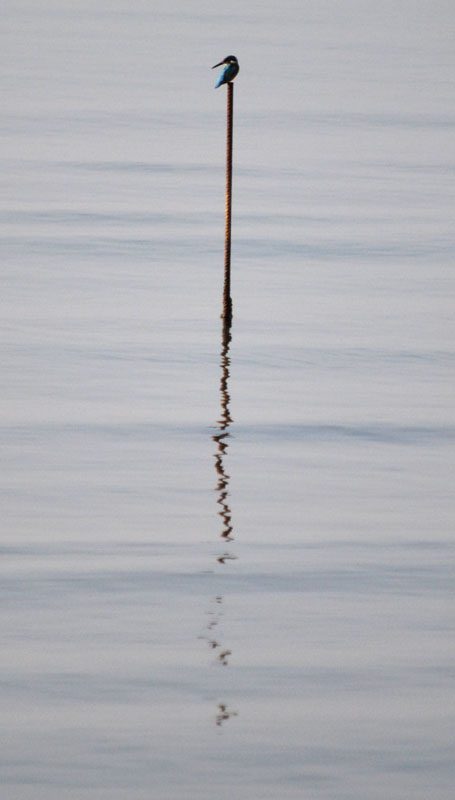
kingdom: Animalia
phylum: Chordata
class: Aves
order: Coraciiformes
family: Alcedinidae
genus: Alcedo
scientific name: Alcedo atthis
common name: Зимородок
